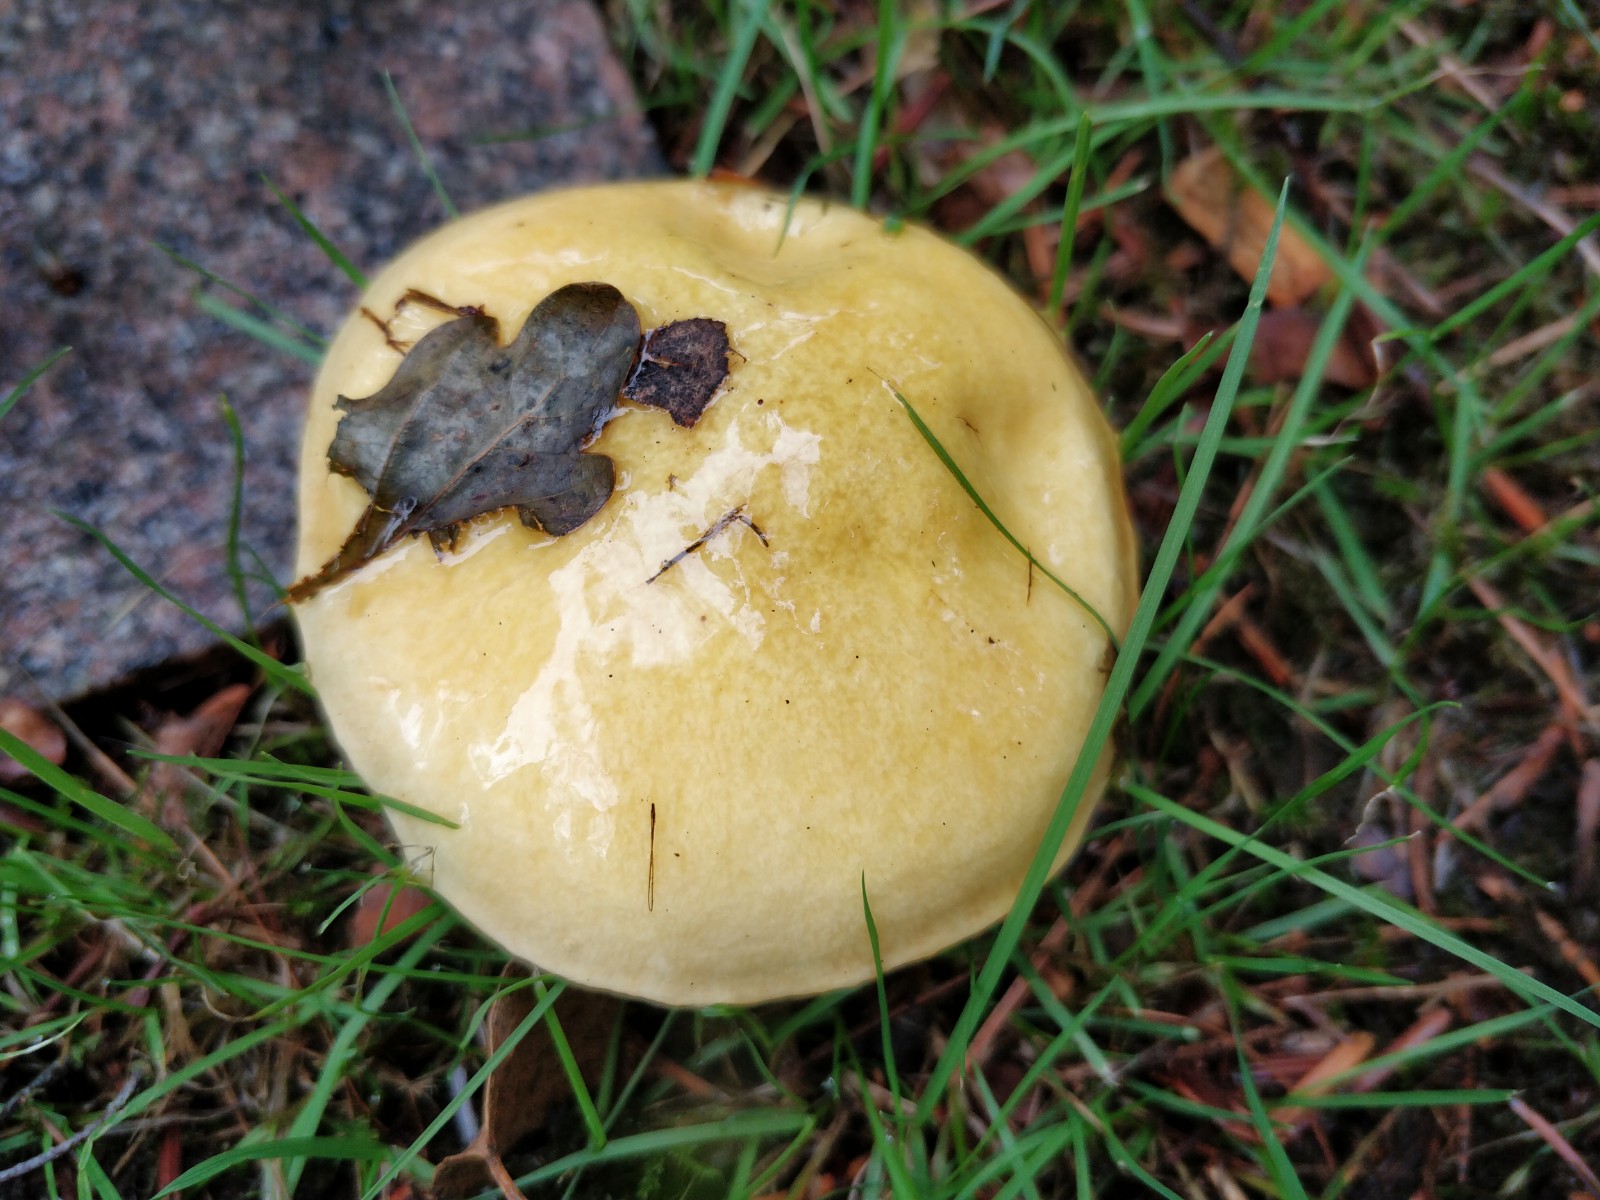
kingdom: Fungi
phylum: Basidiomycota
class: Agaricomycetes
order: Boletales
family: Suillaceae
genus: Suillus
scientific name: Suillus grevillei
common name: lærke-slimrørhat
